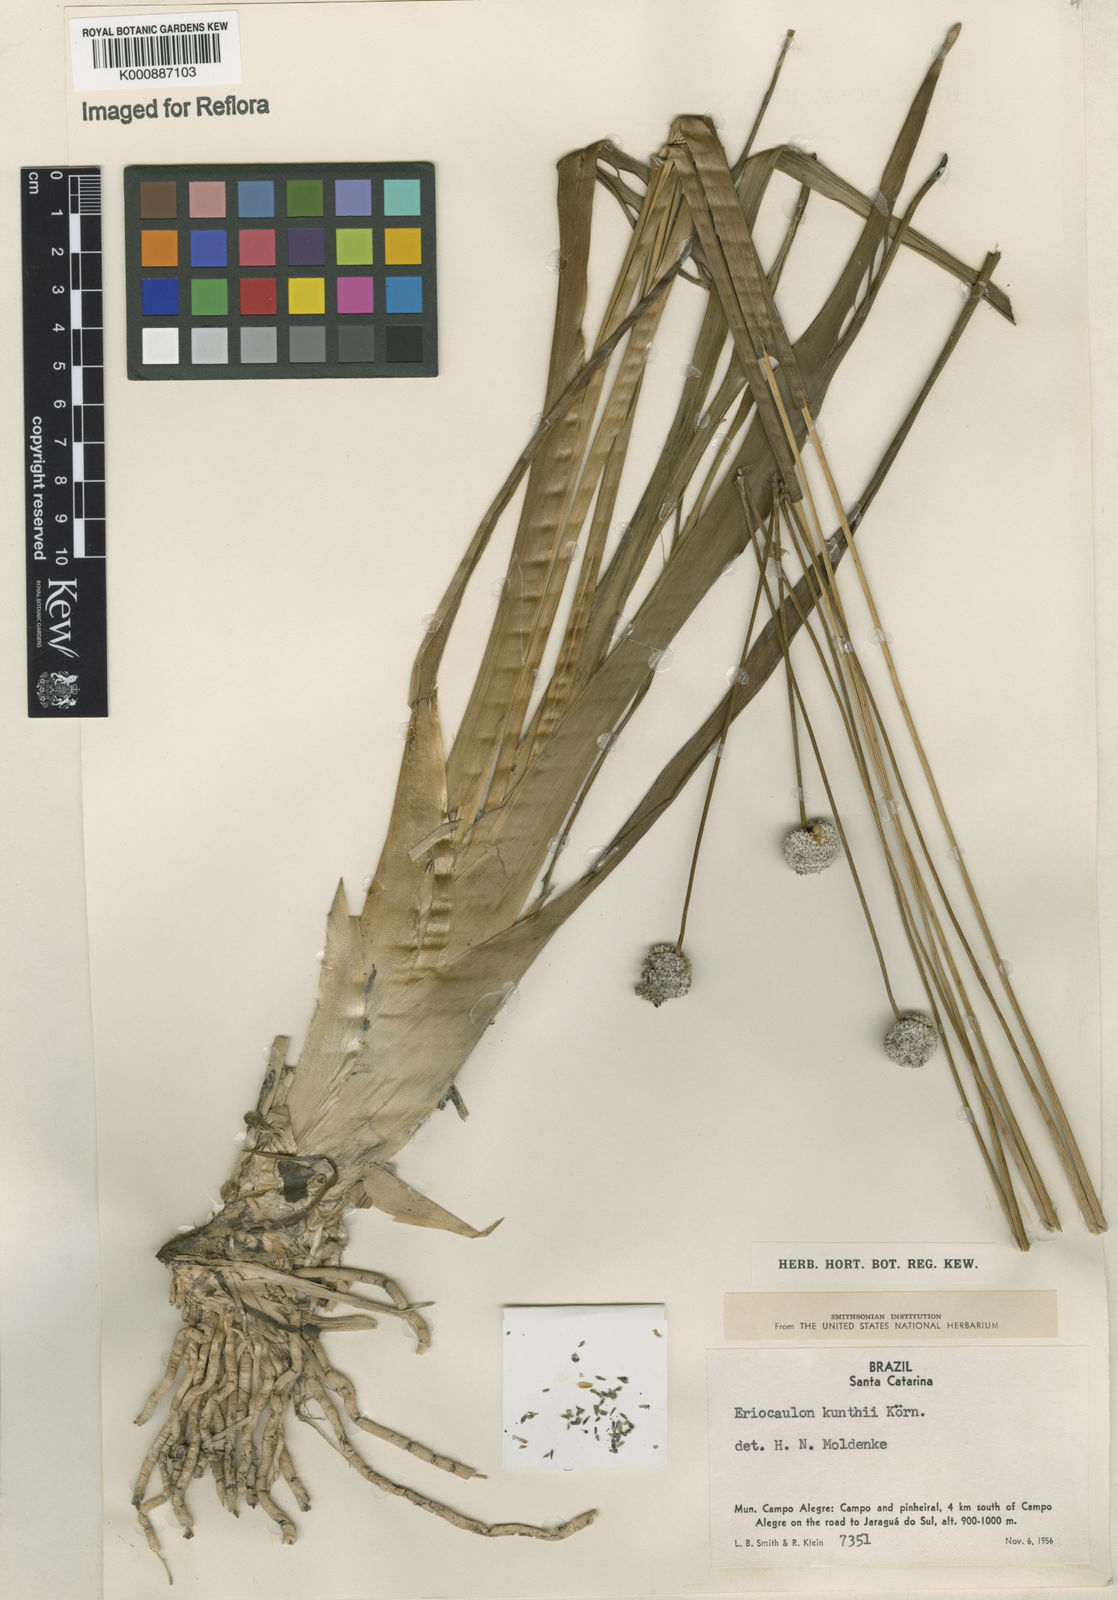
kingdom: Plantae
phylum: Tracheophyta
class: Liliopsida
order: Poales
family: Eriocaulaceae
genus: Eriocaulon
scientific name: Eriocaulon
